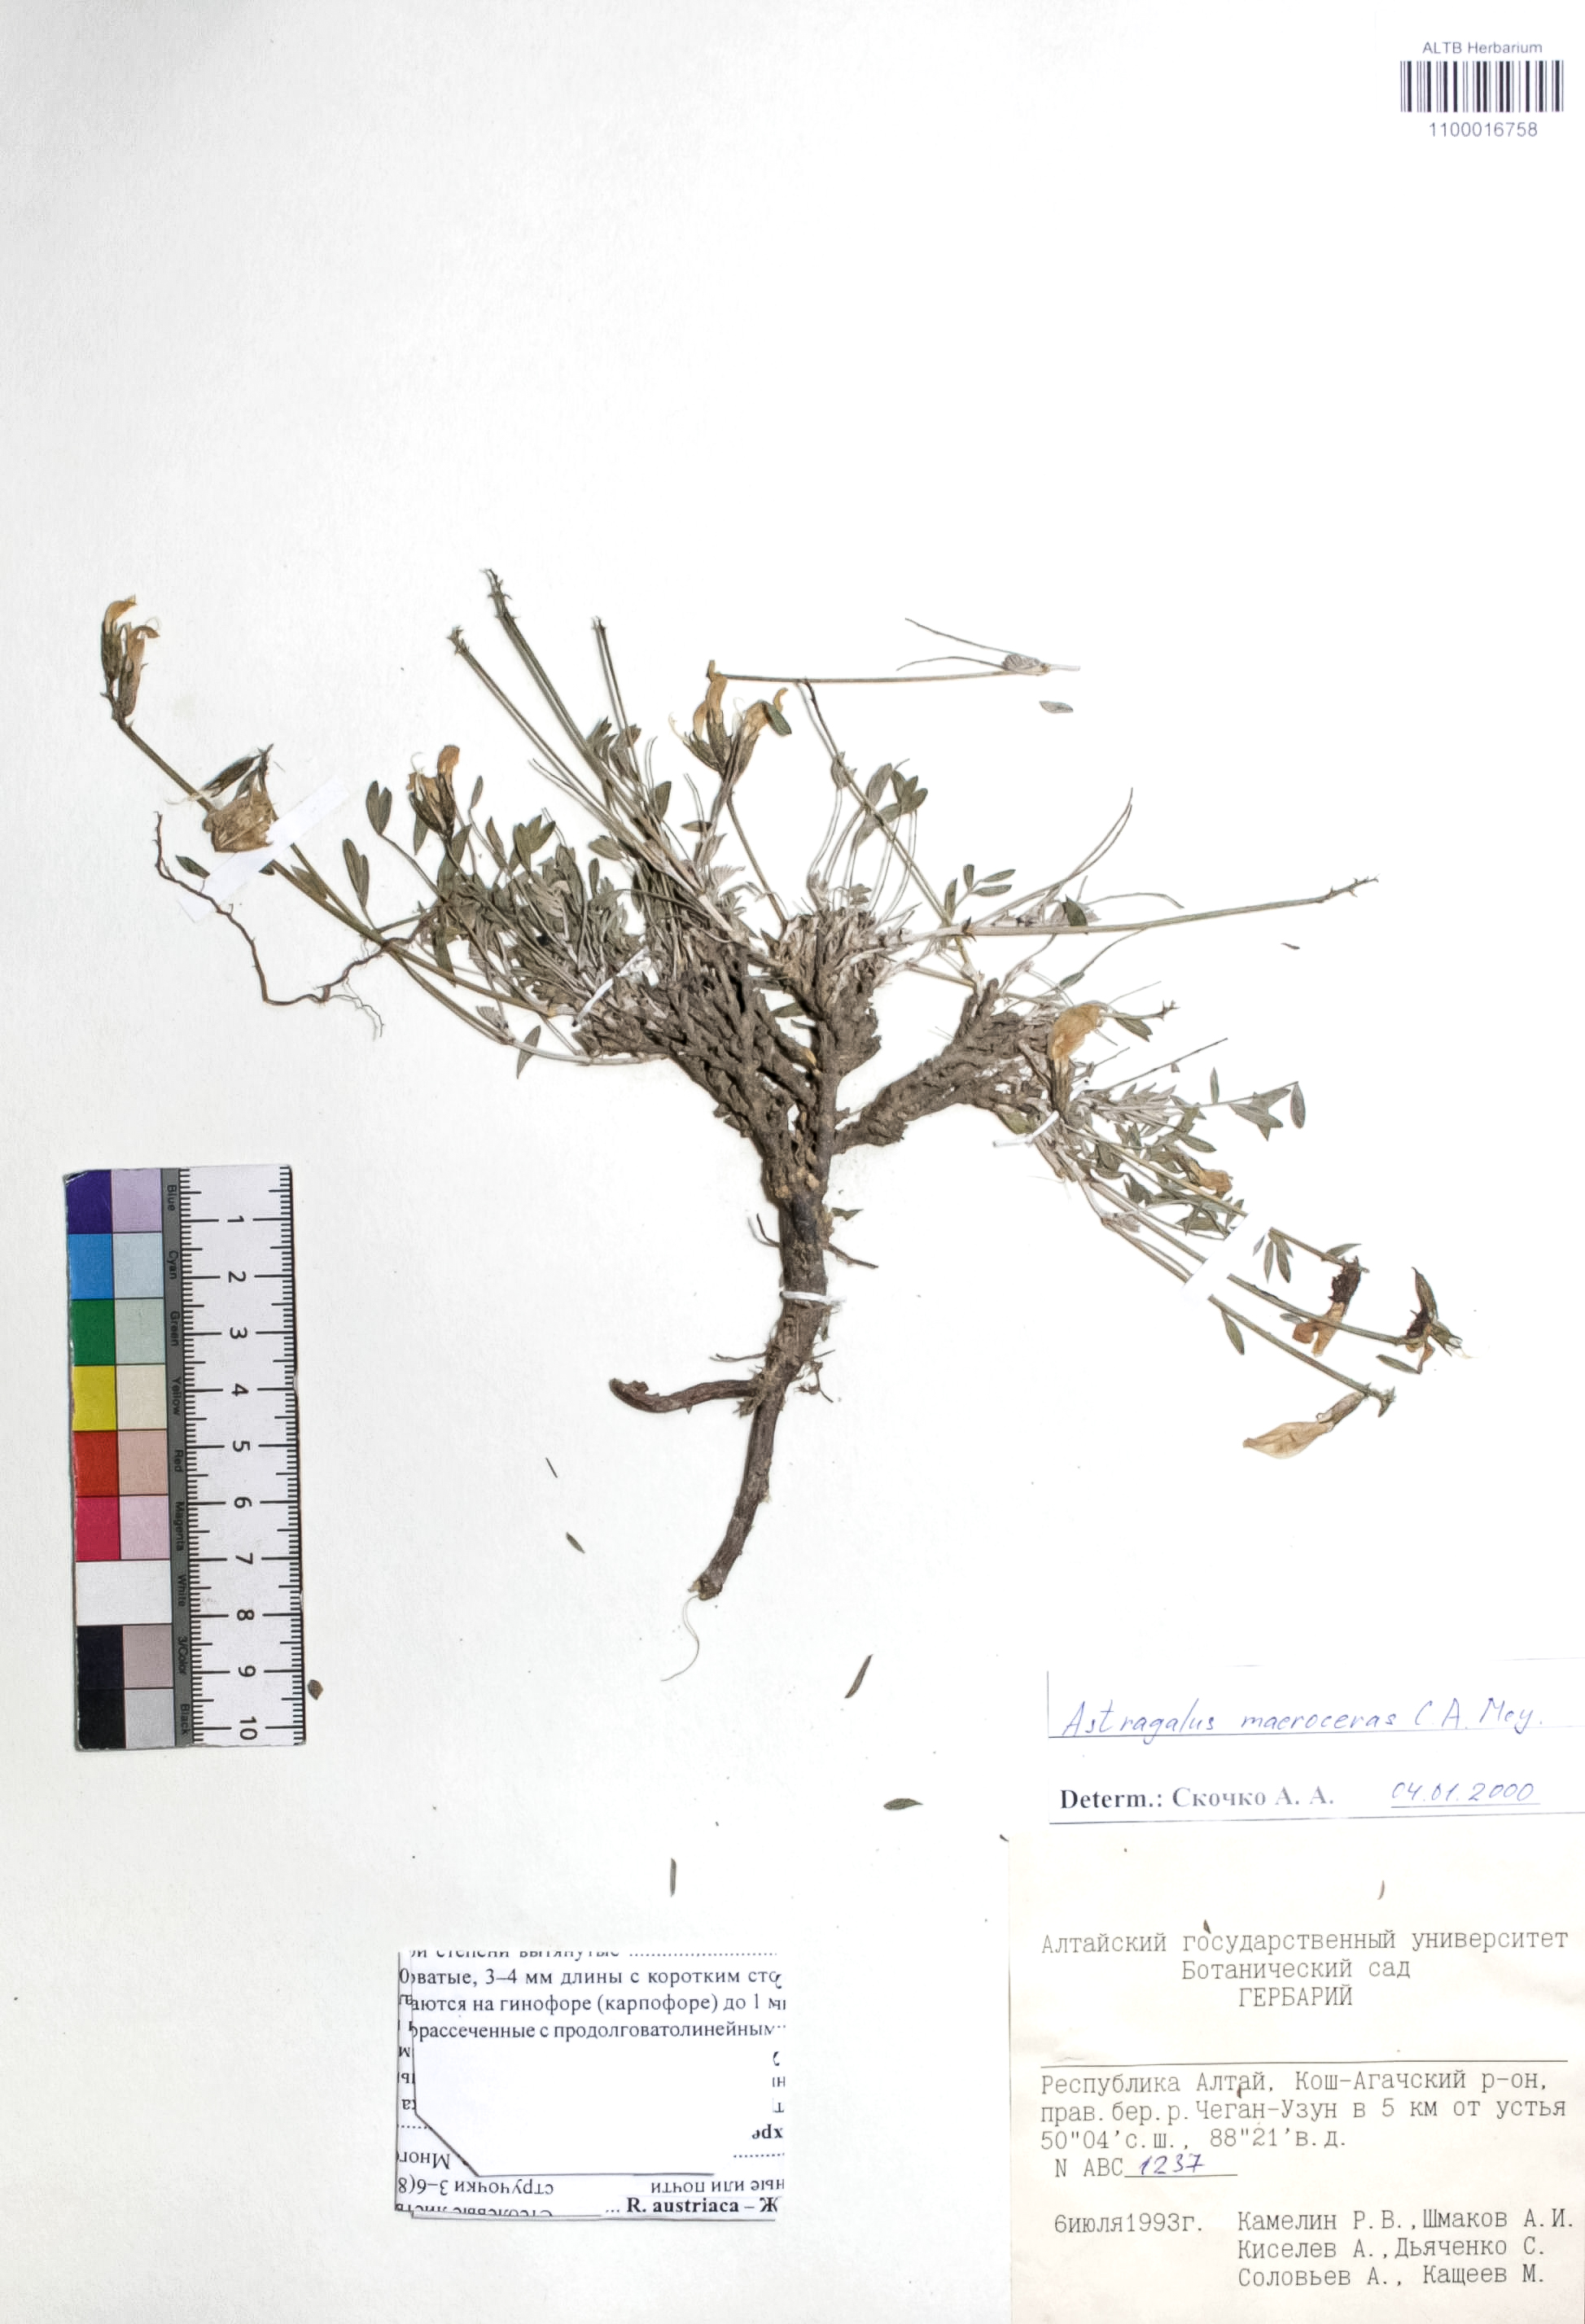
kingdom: Plantae
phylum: Tracheophyta
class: Magnoliopsida
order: Fabales
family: Fabaceae
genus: Astragalus
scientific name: Astragalus macroceras
